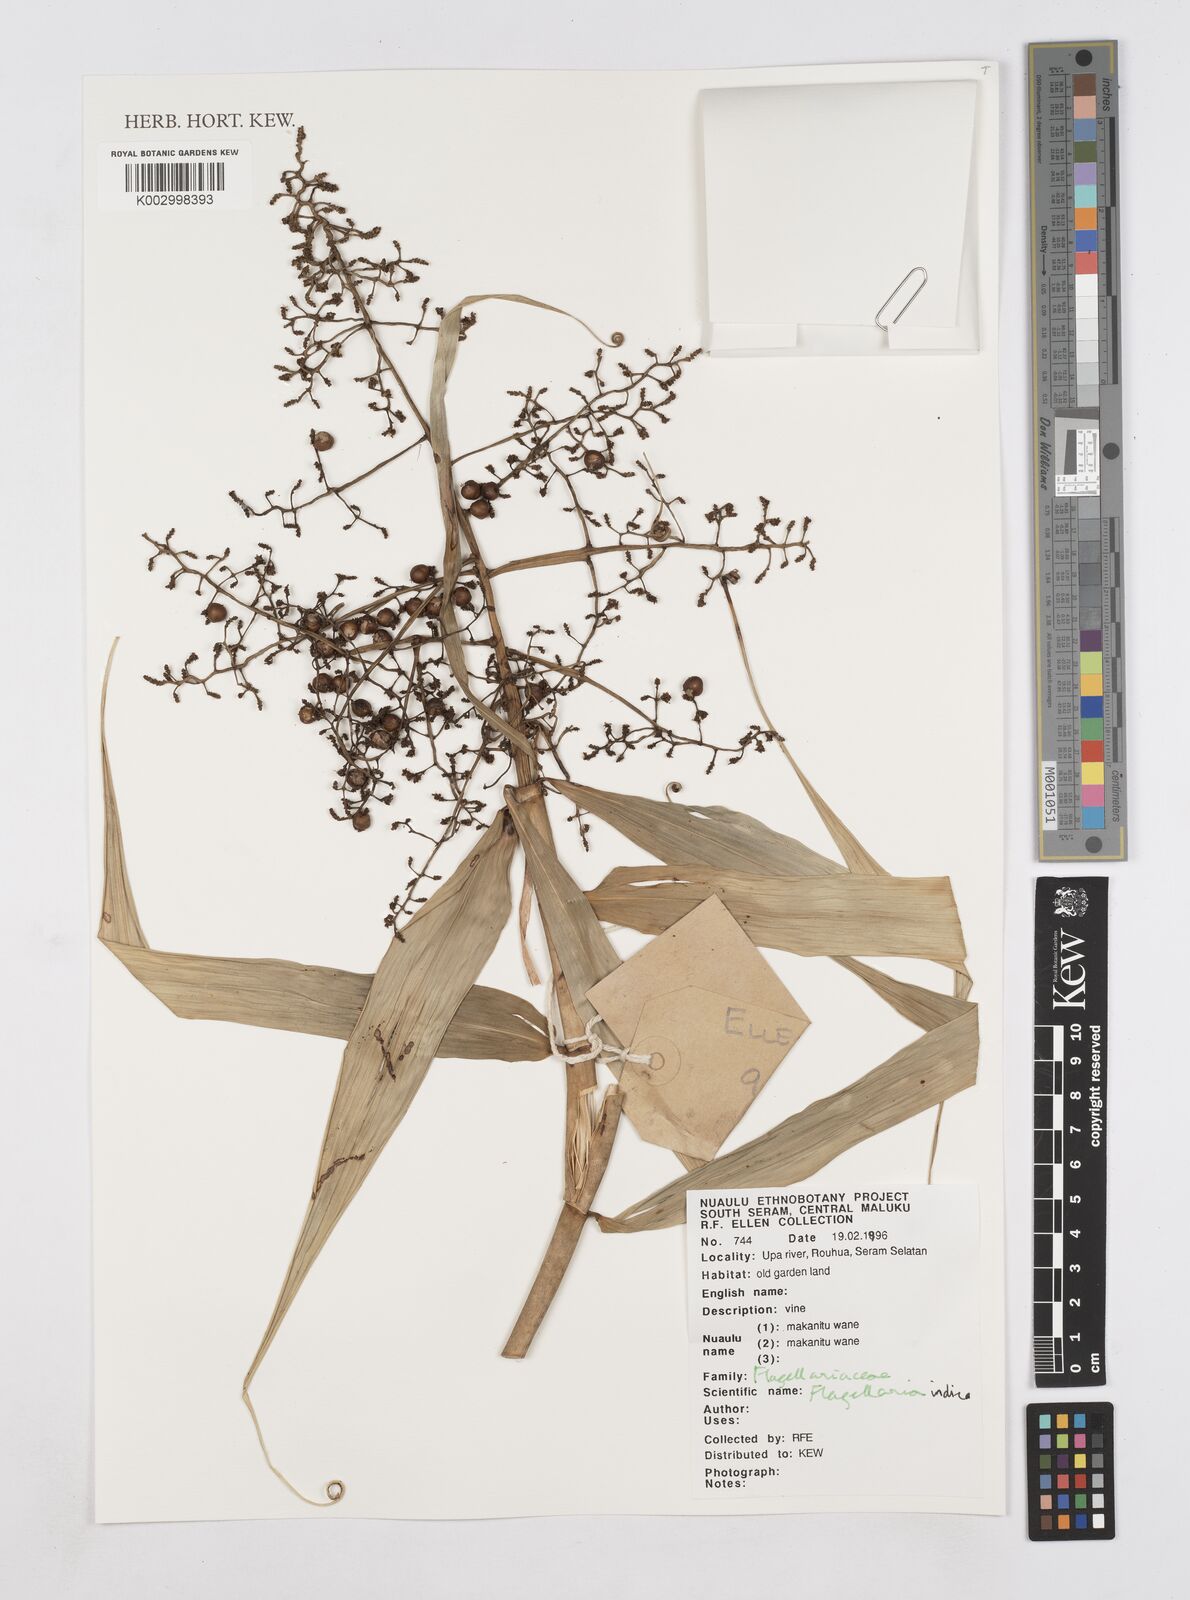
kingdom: Plantae
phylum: Tracheophyta
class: Liliopsida
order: Poales
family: Flagellariaceae
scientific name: Flagellariaceae
